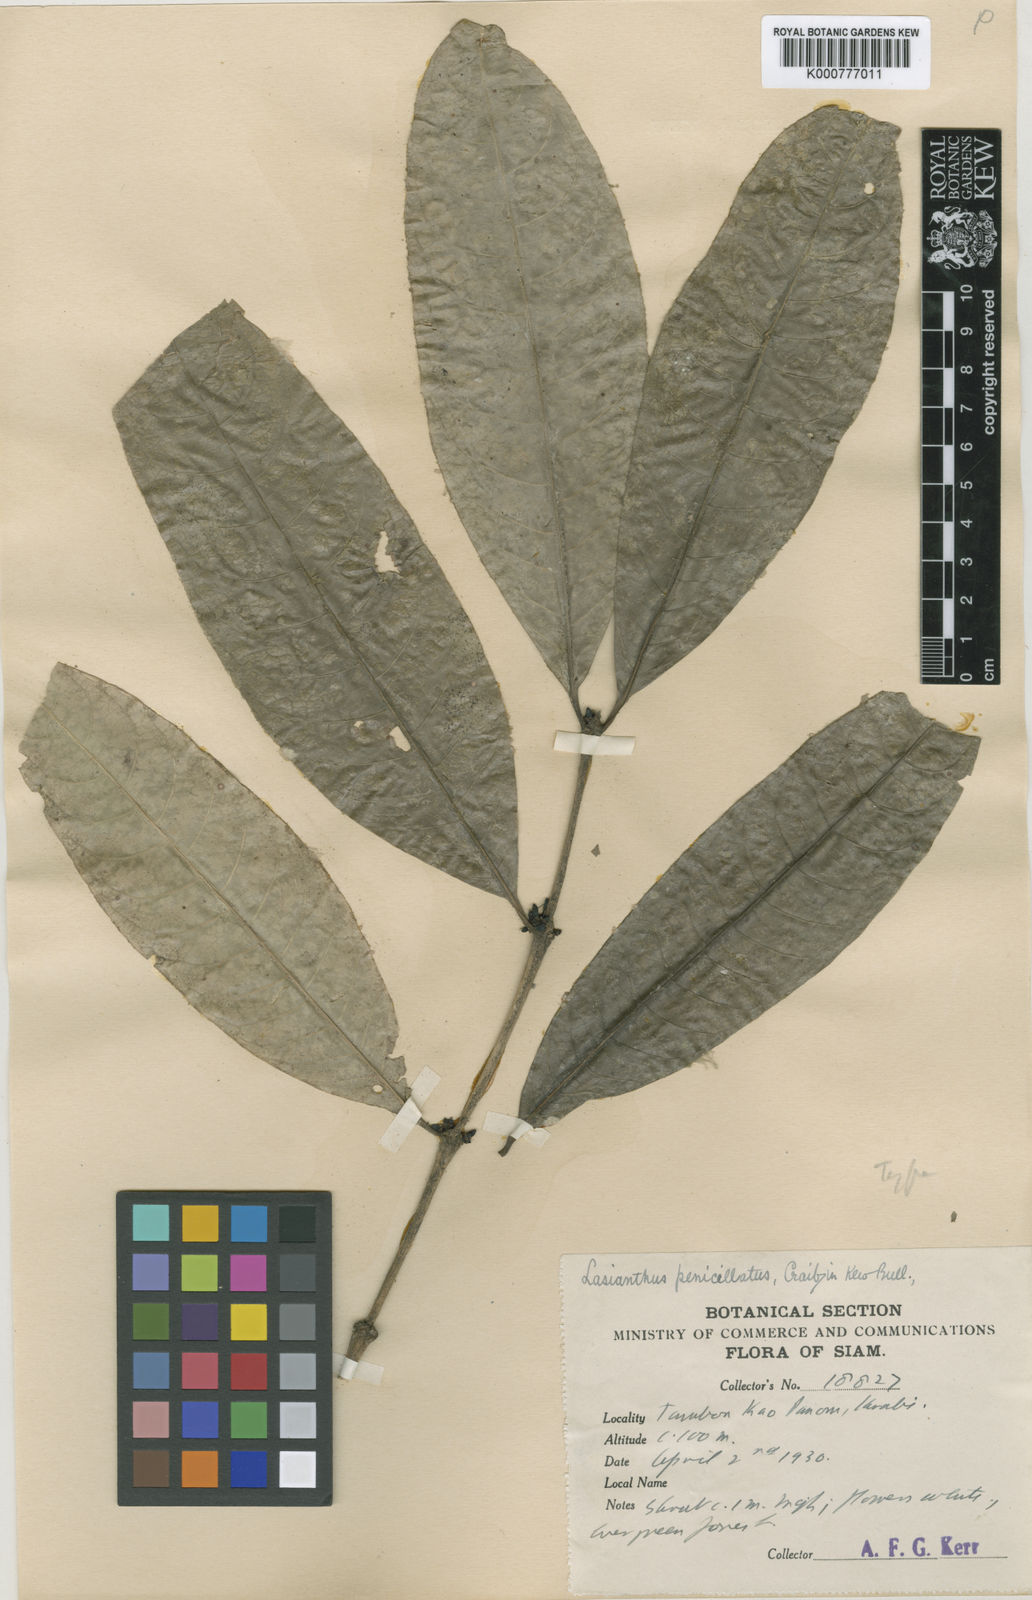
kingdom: Plantae
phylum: Tracheophyta
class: Magnoliopsida
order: Gentianales
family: Rubiaceae
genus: Lasianthus
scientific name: Lasianthus repoeuensis
